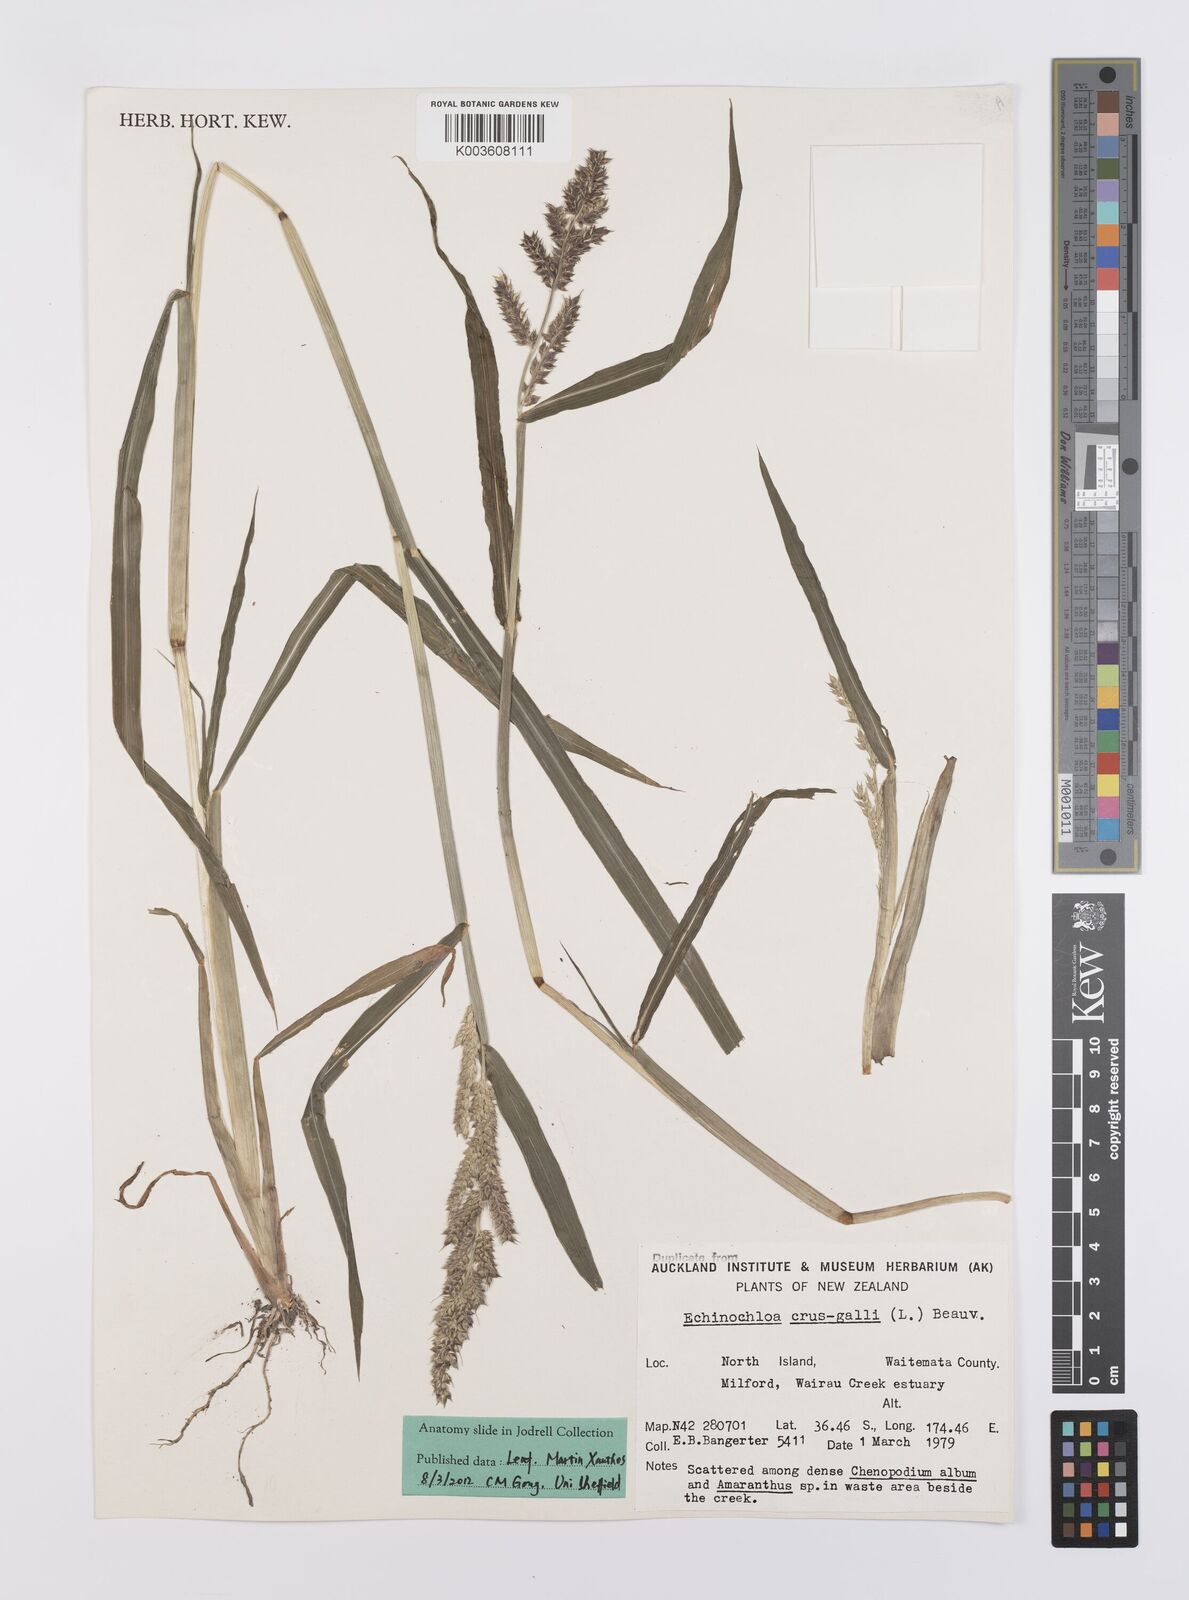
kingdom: Plantae
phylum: Tracheophyta
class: Liliopsida
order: Poales
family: Poaceae
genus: Echinochloa
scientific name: Echinochloa crus-galli
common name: Cockspur
